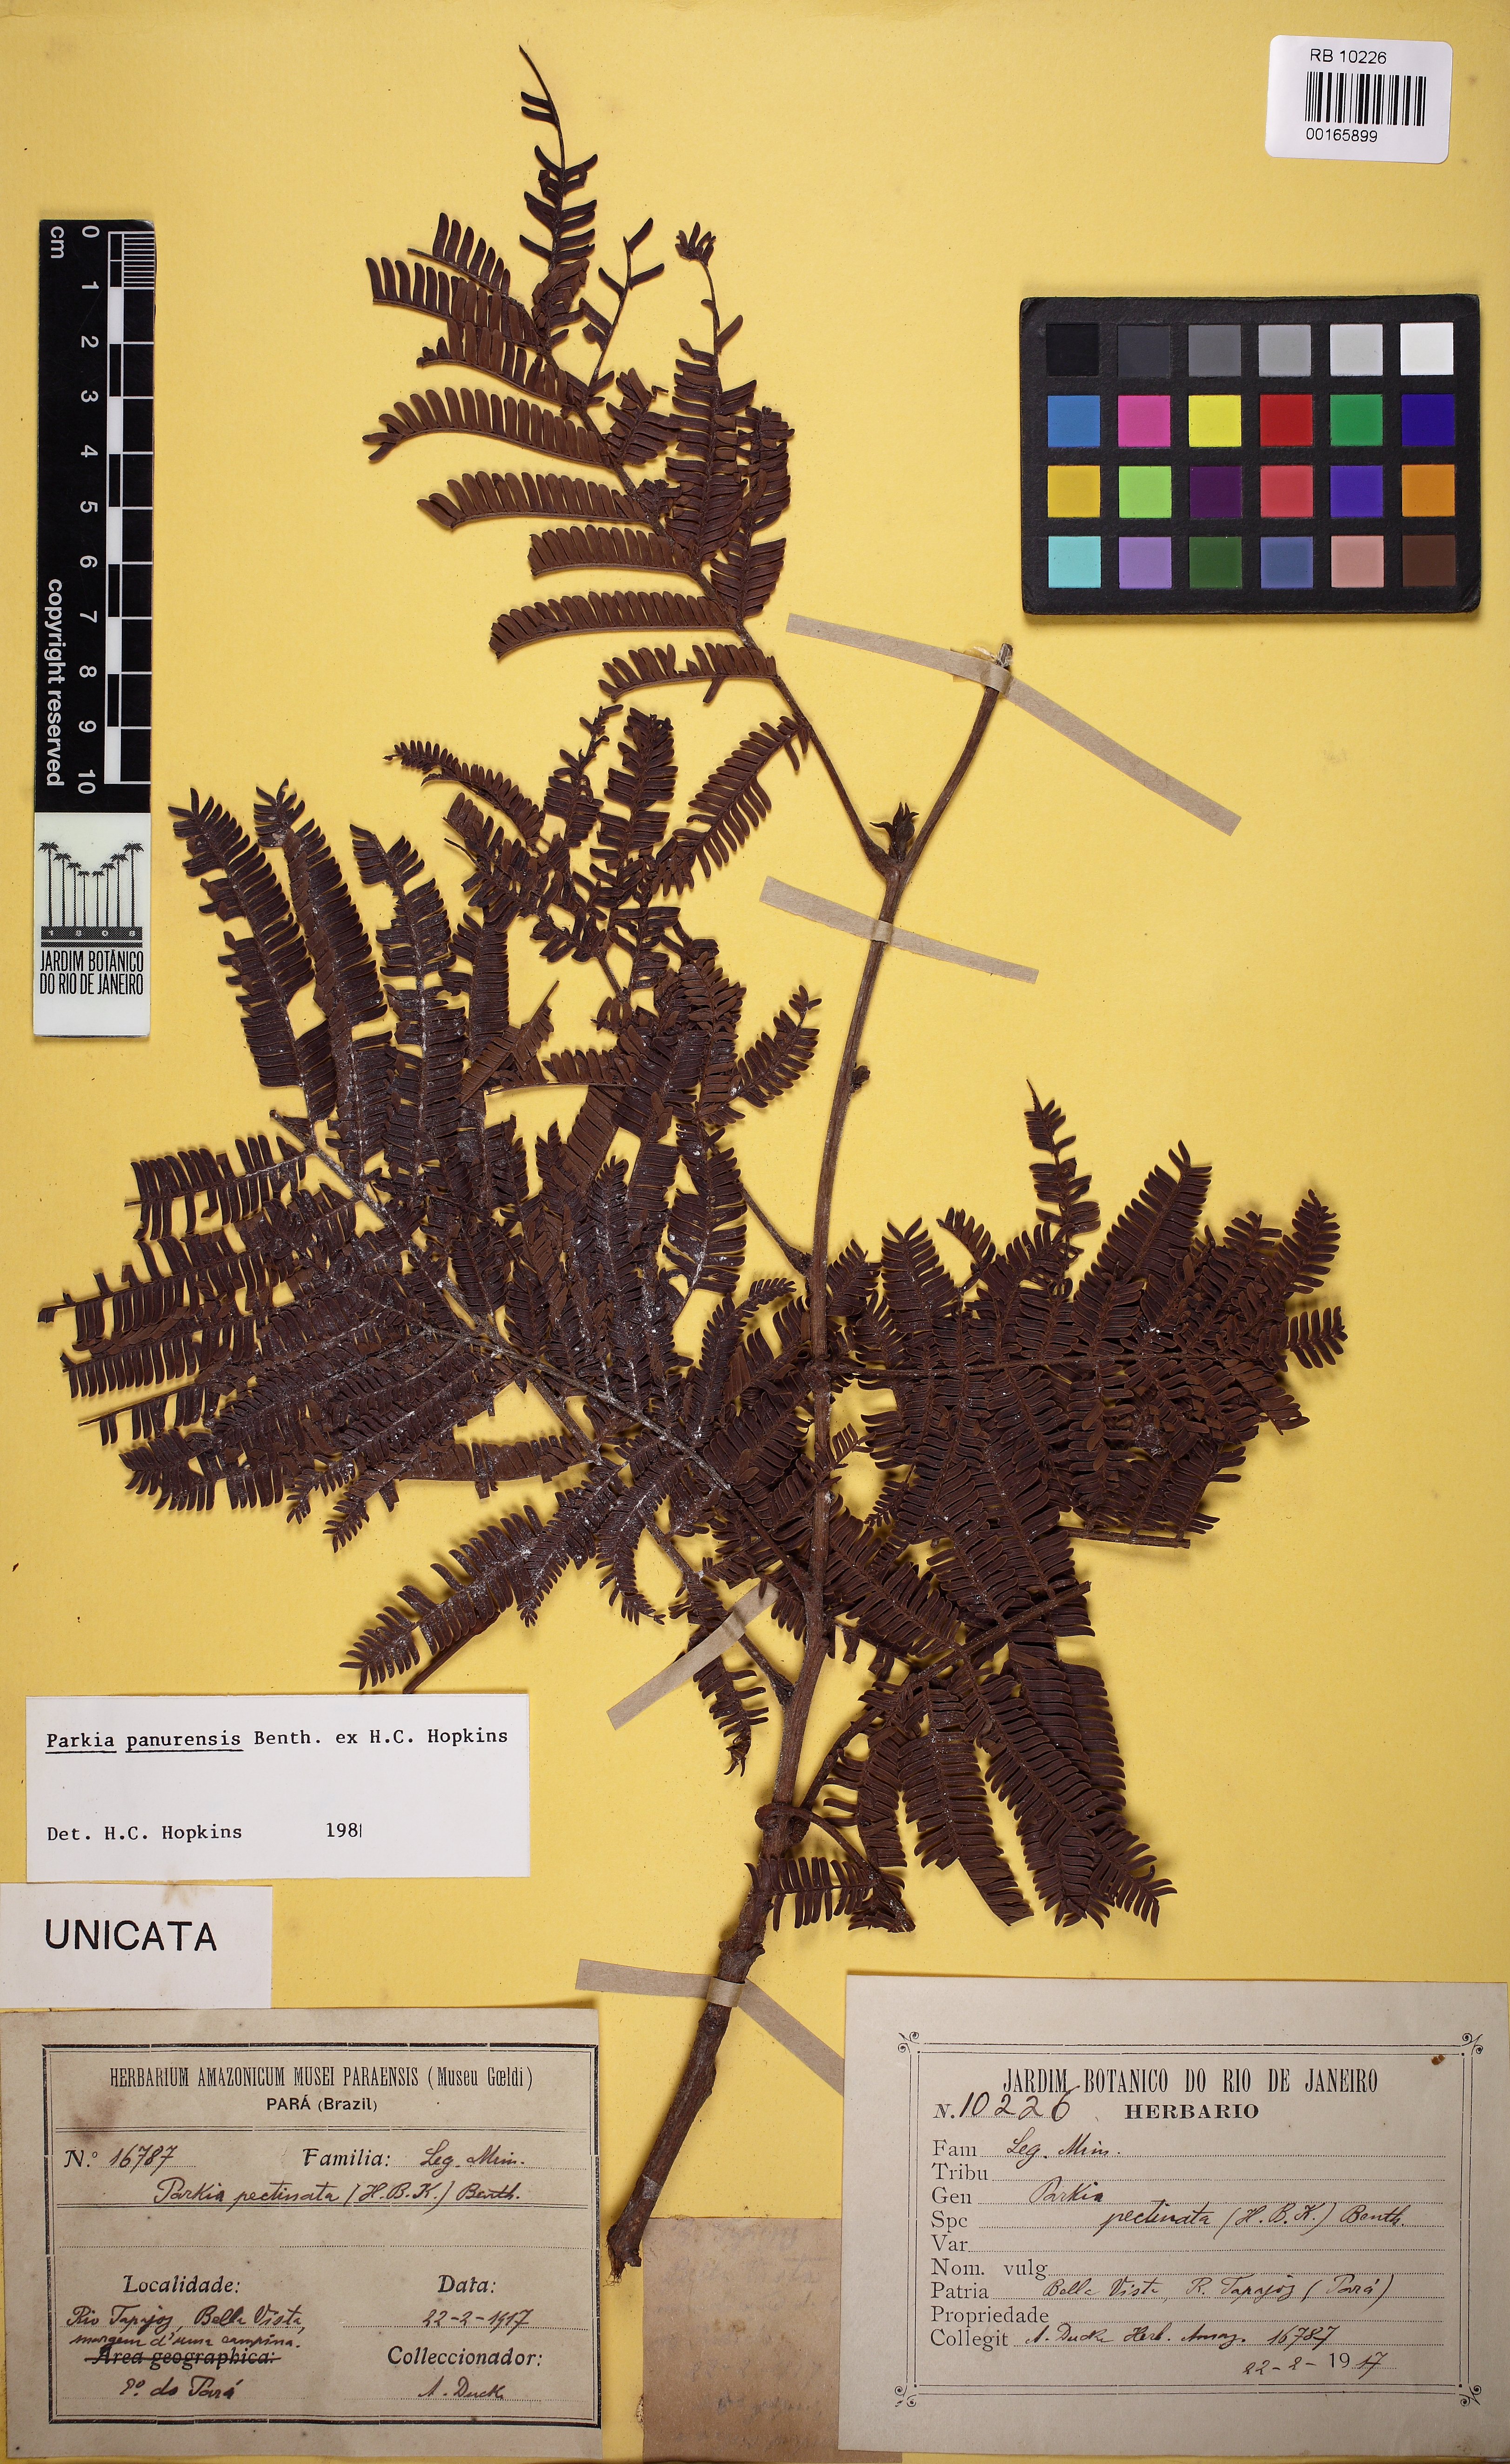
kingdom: Plantae
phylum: Tracheophyta
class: Magnoliopsida
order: Fabales
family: Fabaceae
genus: Parkia
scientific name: Parkia pectinata
